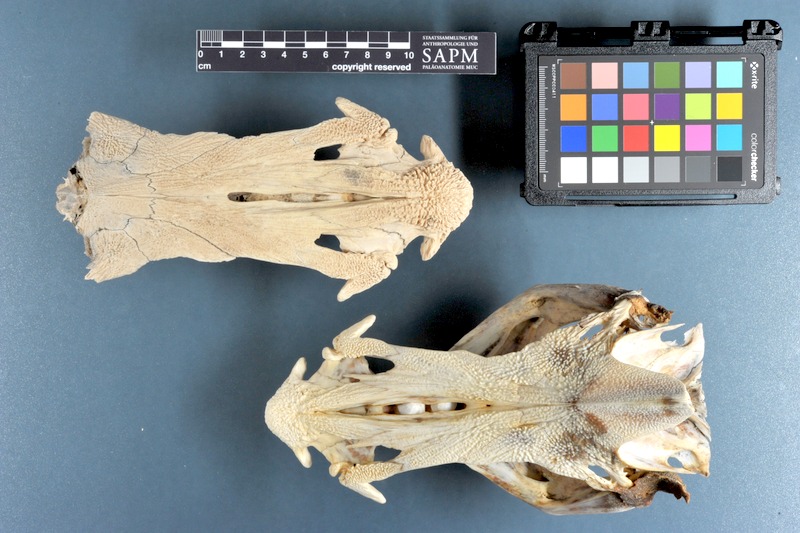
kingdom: Animalia
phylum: Chordata
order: Siluriformes
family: Ariidae
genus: Netuma
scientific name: Netuma thalassina
